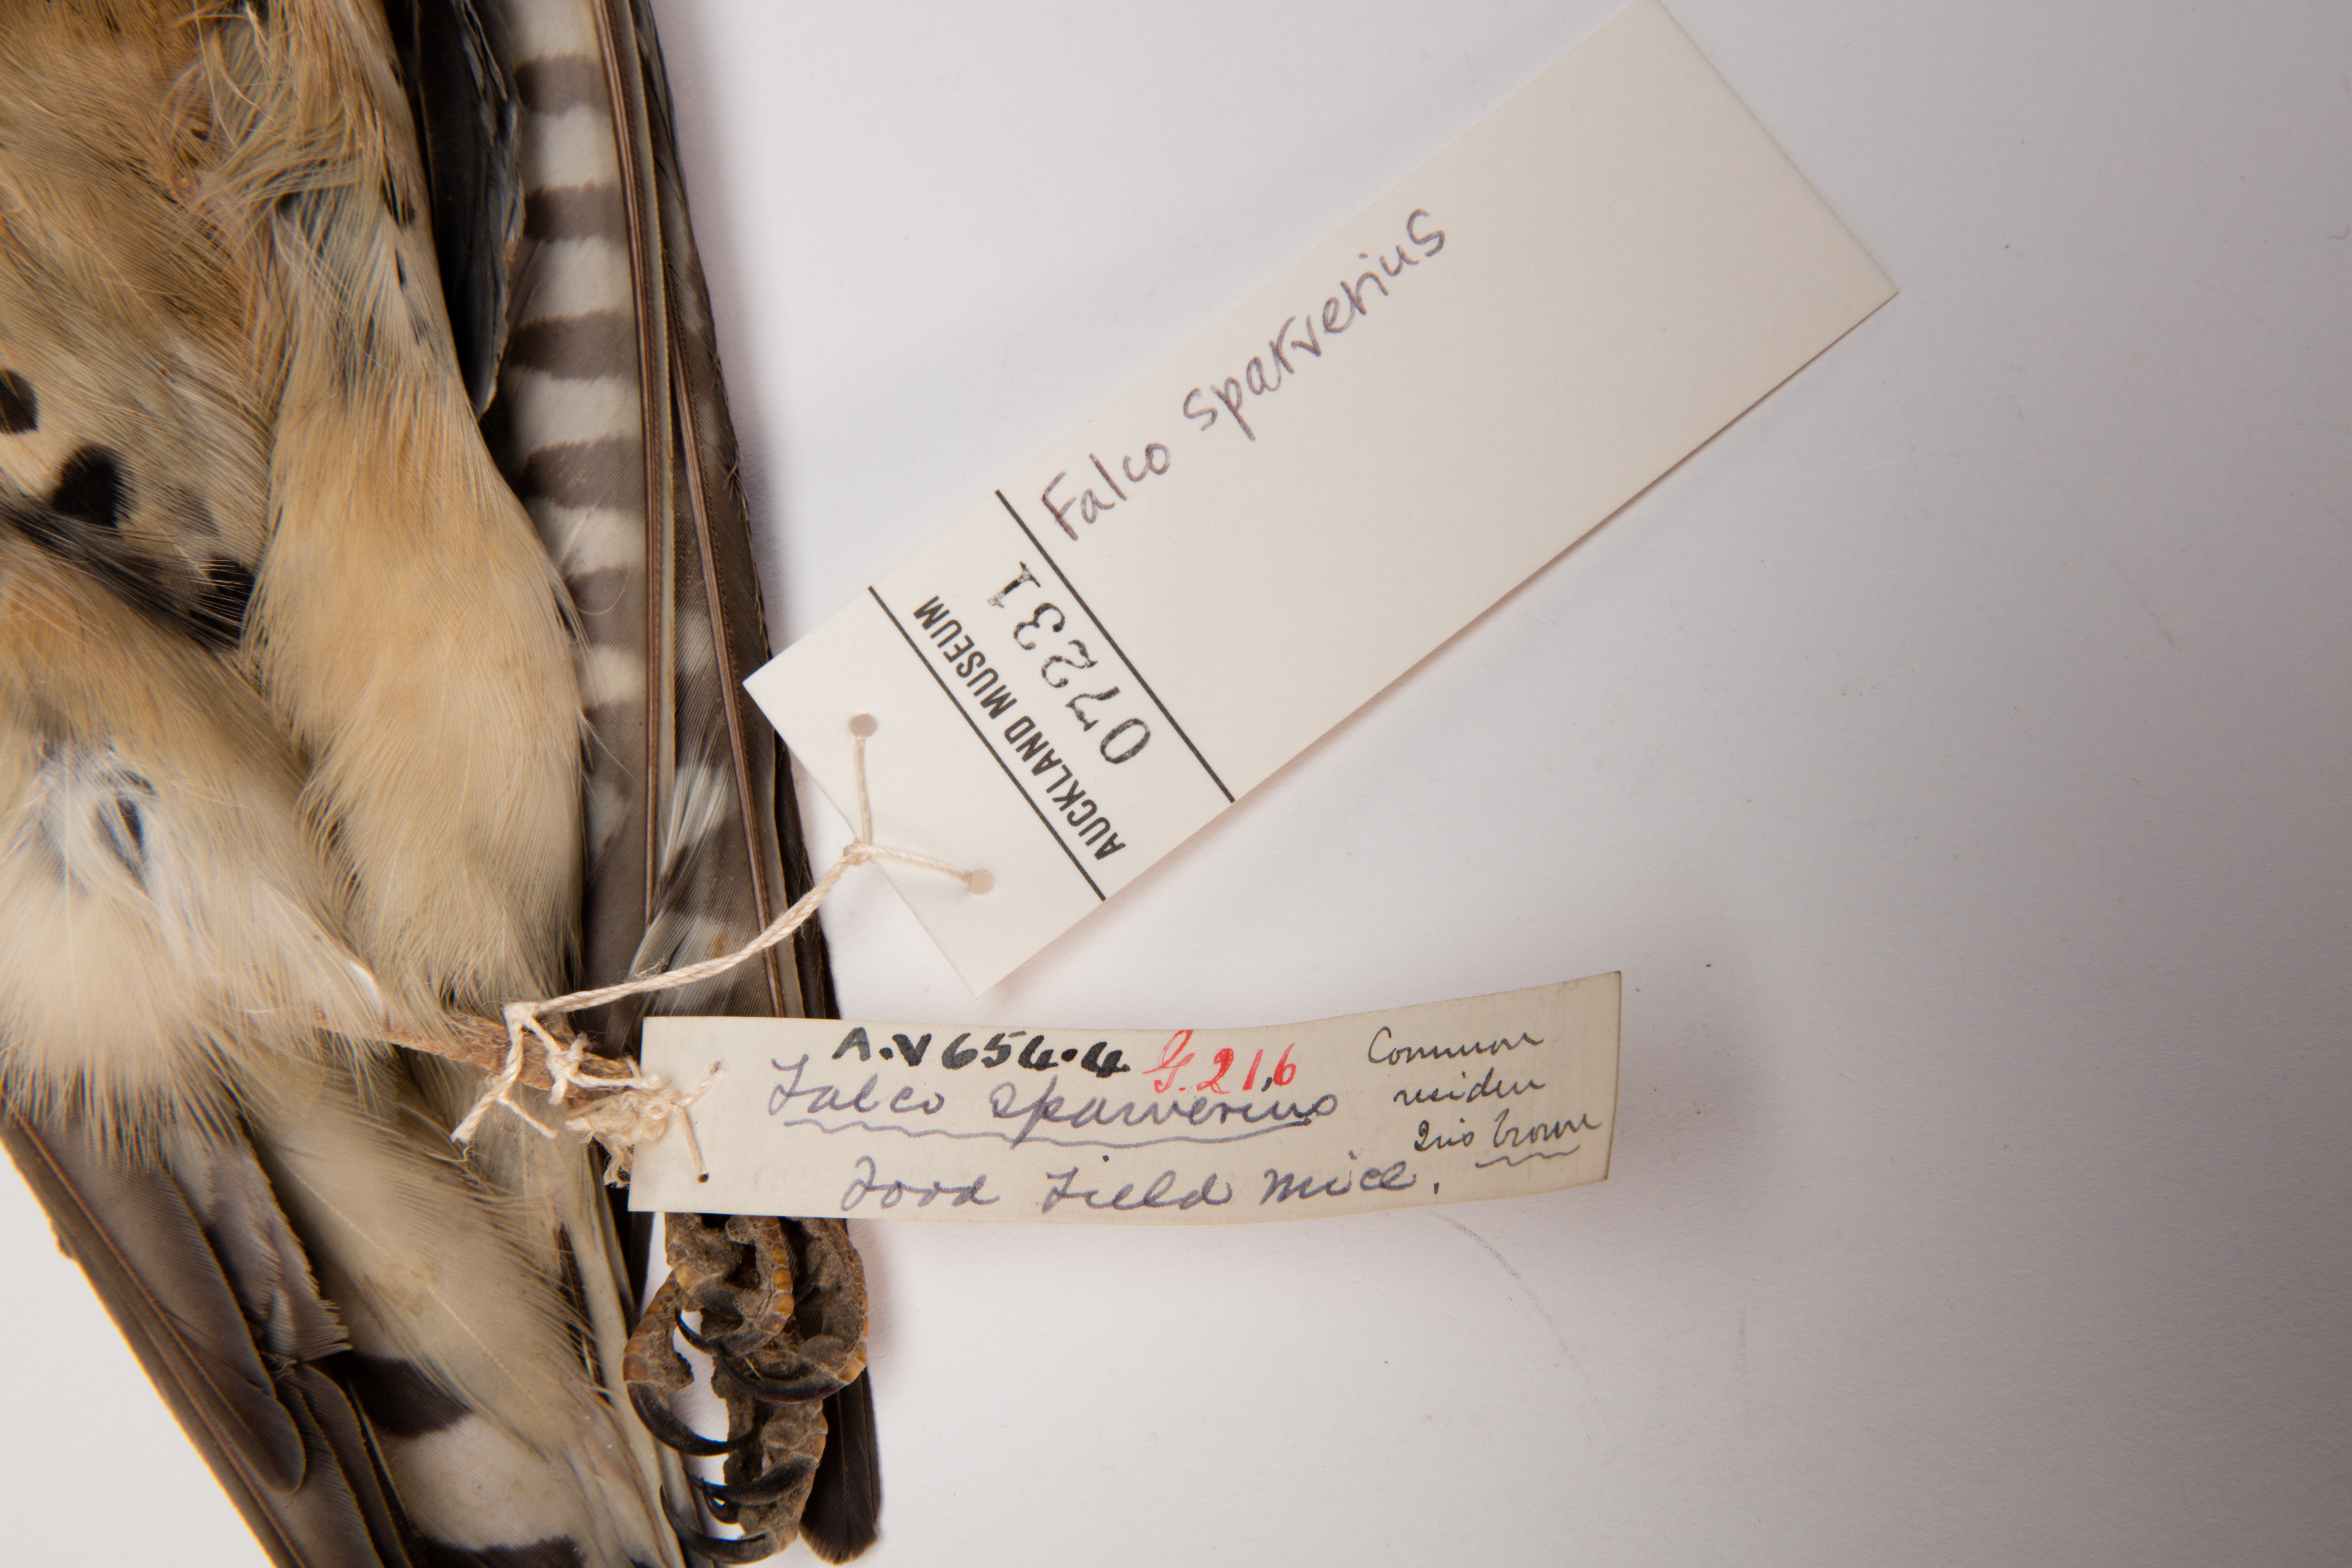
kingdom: Animalia
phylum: Chordata
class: Aves
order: Falconiformes
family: Falconidae
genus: Falco
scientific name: Falco sparverius
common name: American kestrel
